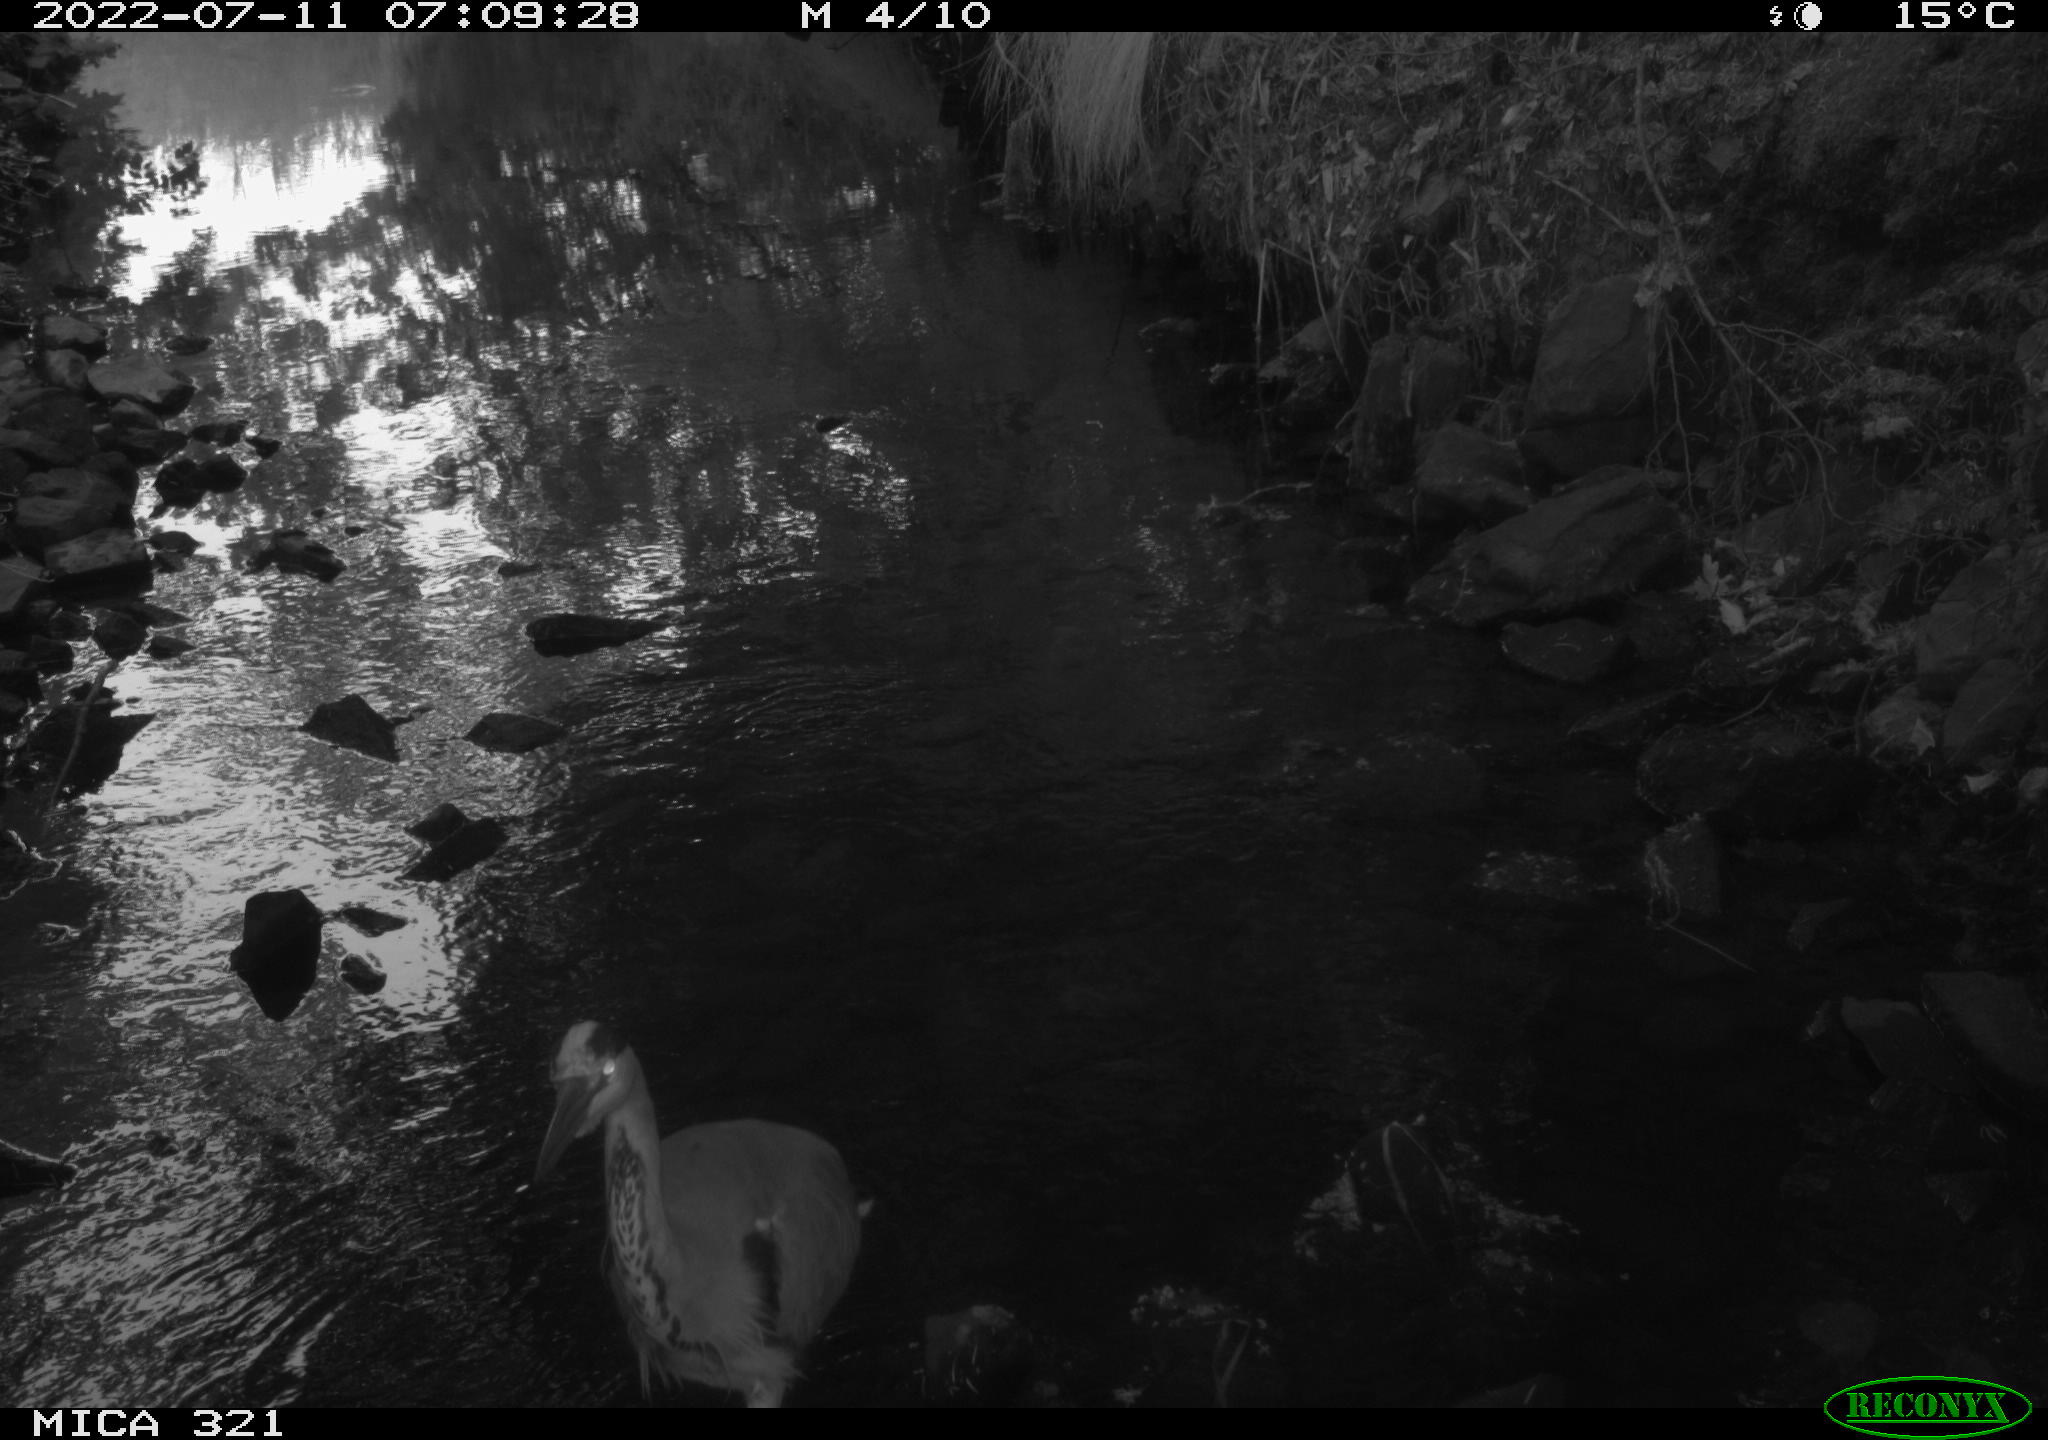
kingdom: Animalia
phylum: Chordata
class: Aves
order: Pelecaniformes
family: Ardeidae
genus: Ardea
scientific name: Ardea
